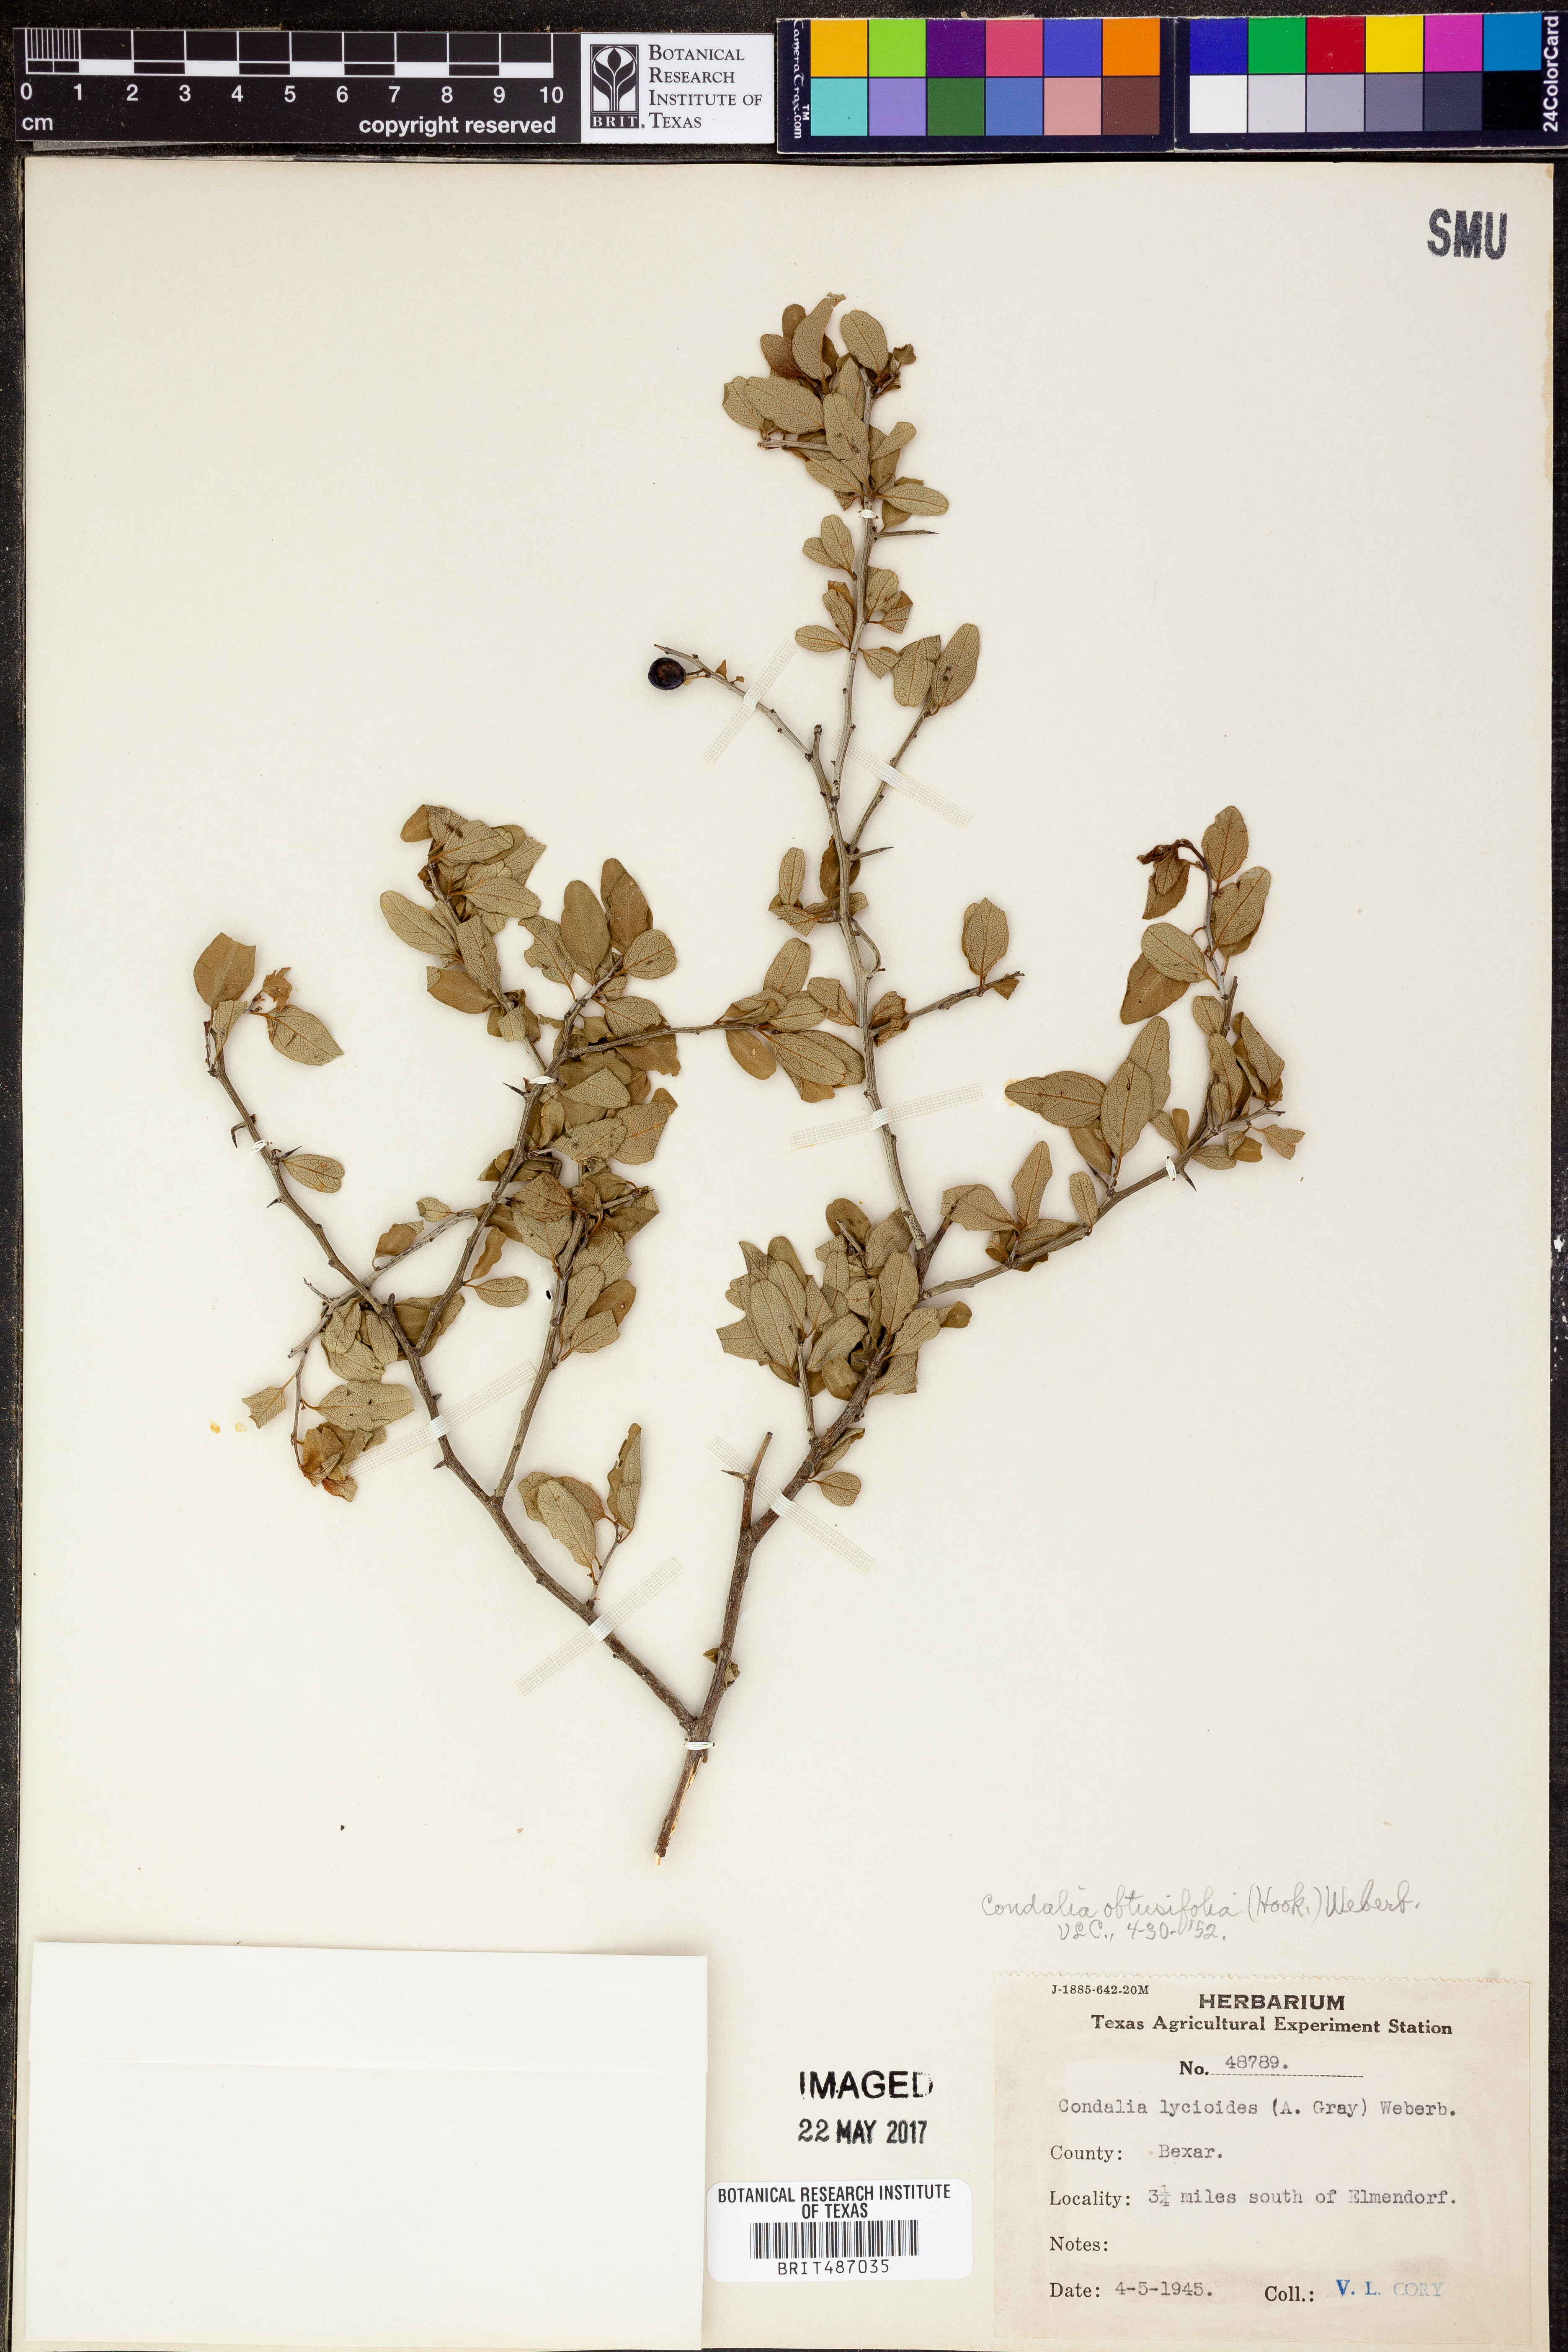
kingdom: Plantae
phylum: Tracheophyta
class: Magnoliopsida
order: Malpighiales
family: Euphorbiaceae
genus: Acalypha
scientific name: Acalypha indica
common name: Indian acalypha
